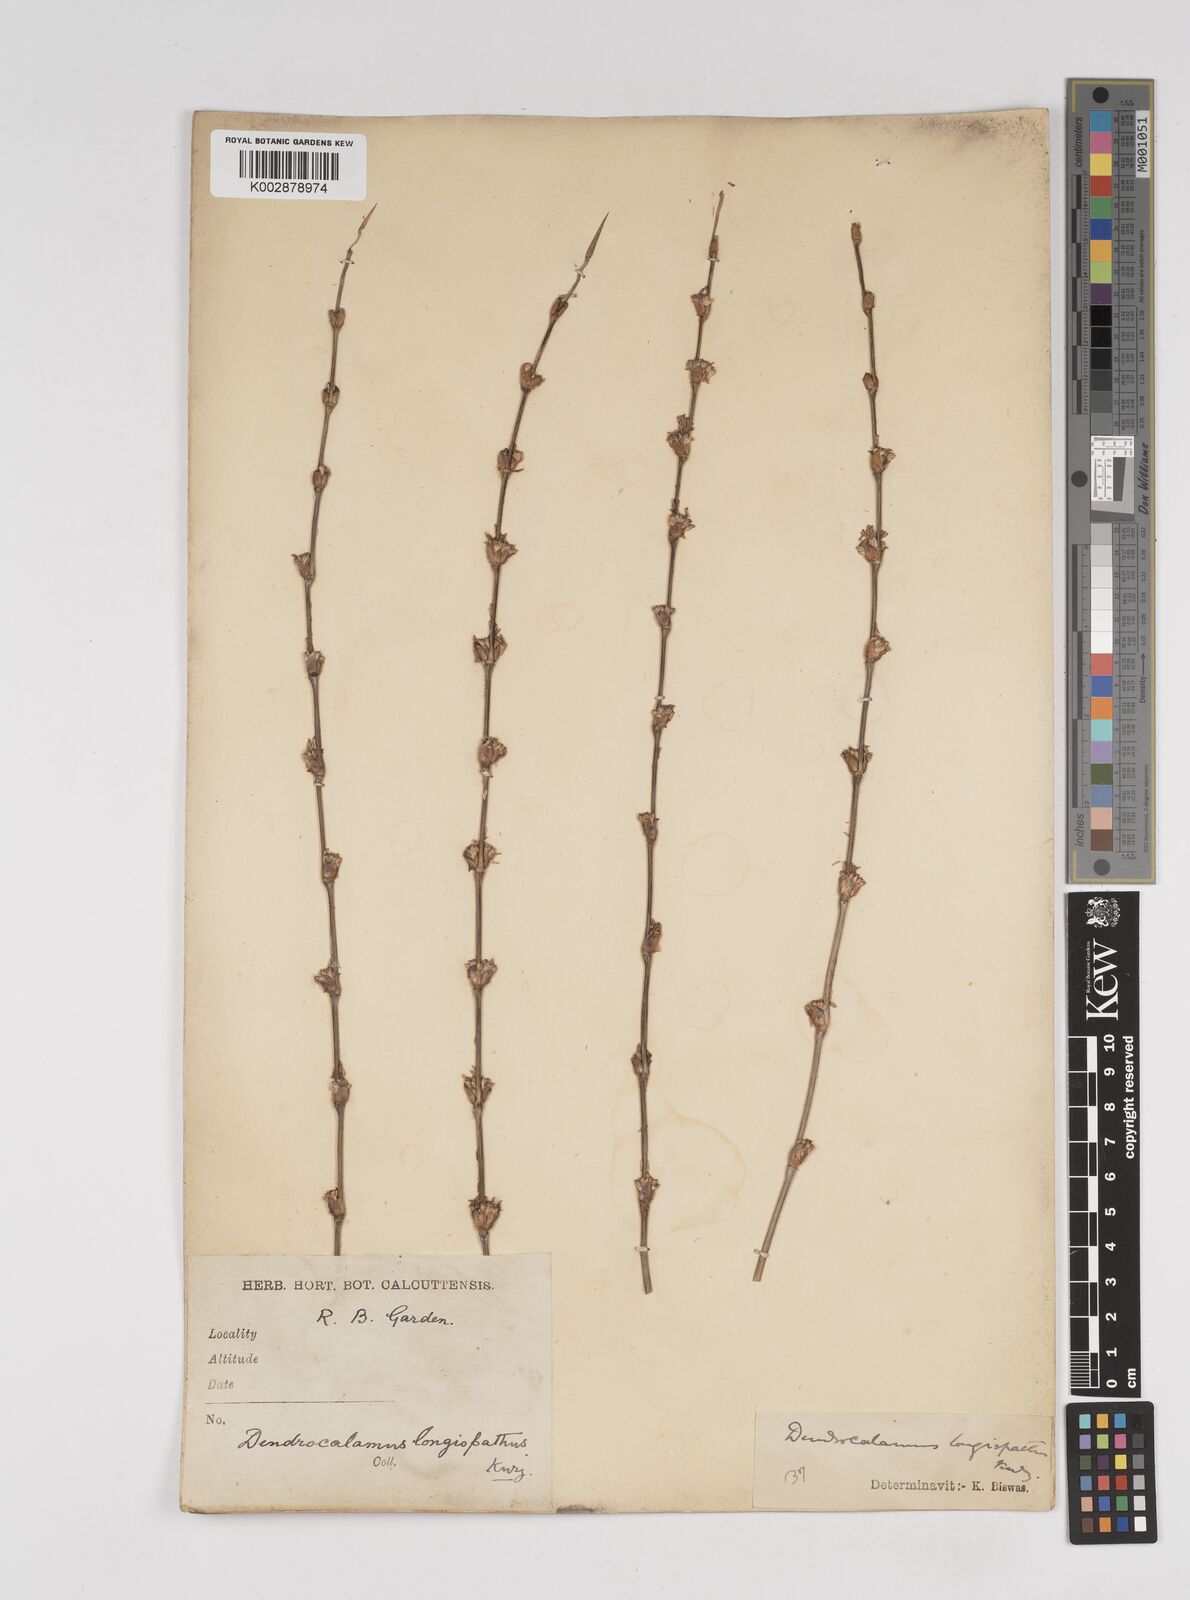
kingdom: Plantae
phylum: Tracheophyta
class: Liliopsida
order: Poales
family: Poaceae
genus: Dendrocalamus
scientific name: Dendrocalamus longispathus
